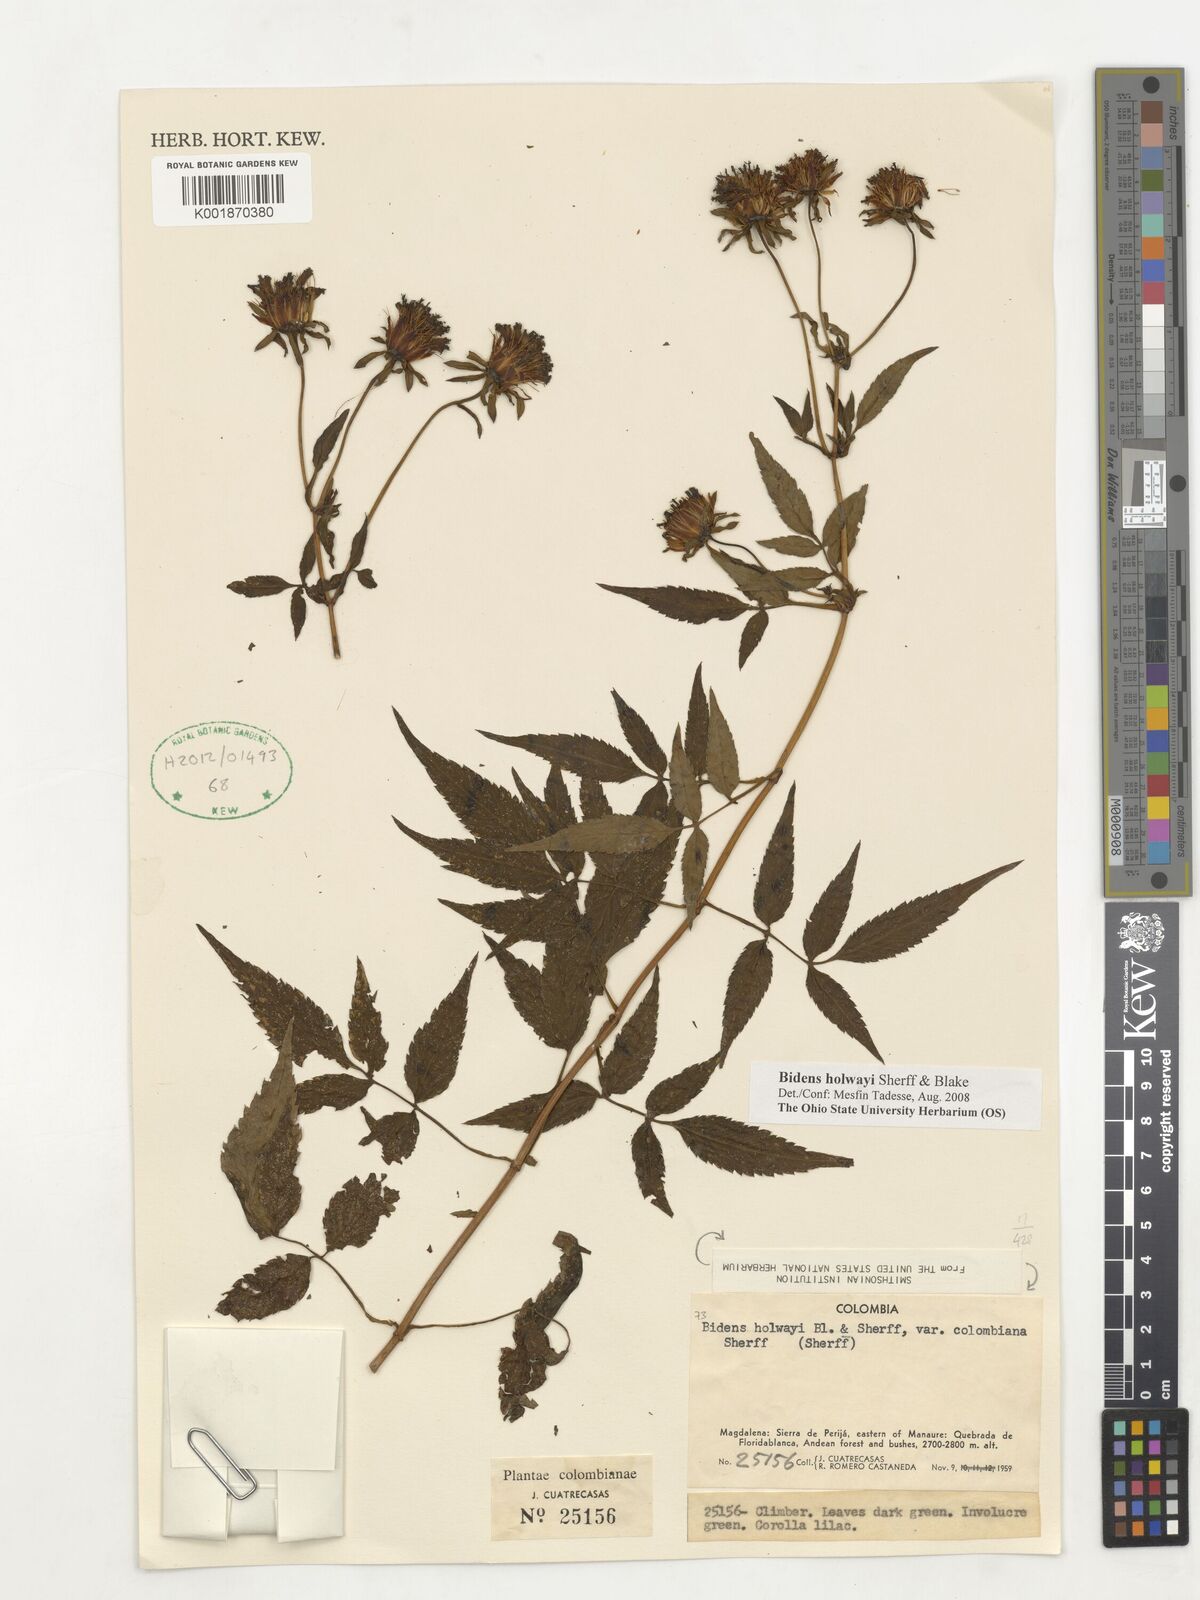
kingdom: Plantae
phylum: Tracheophyta
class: Magnoliopsida
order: Asterales
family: Asteraceae
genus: Bidens
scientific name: Bidens holwayi
